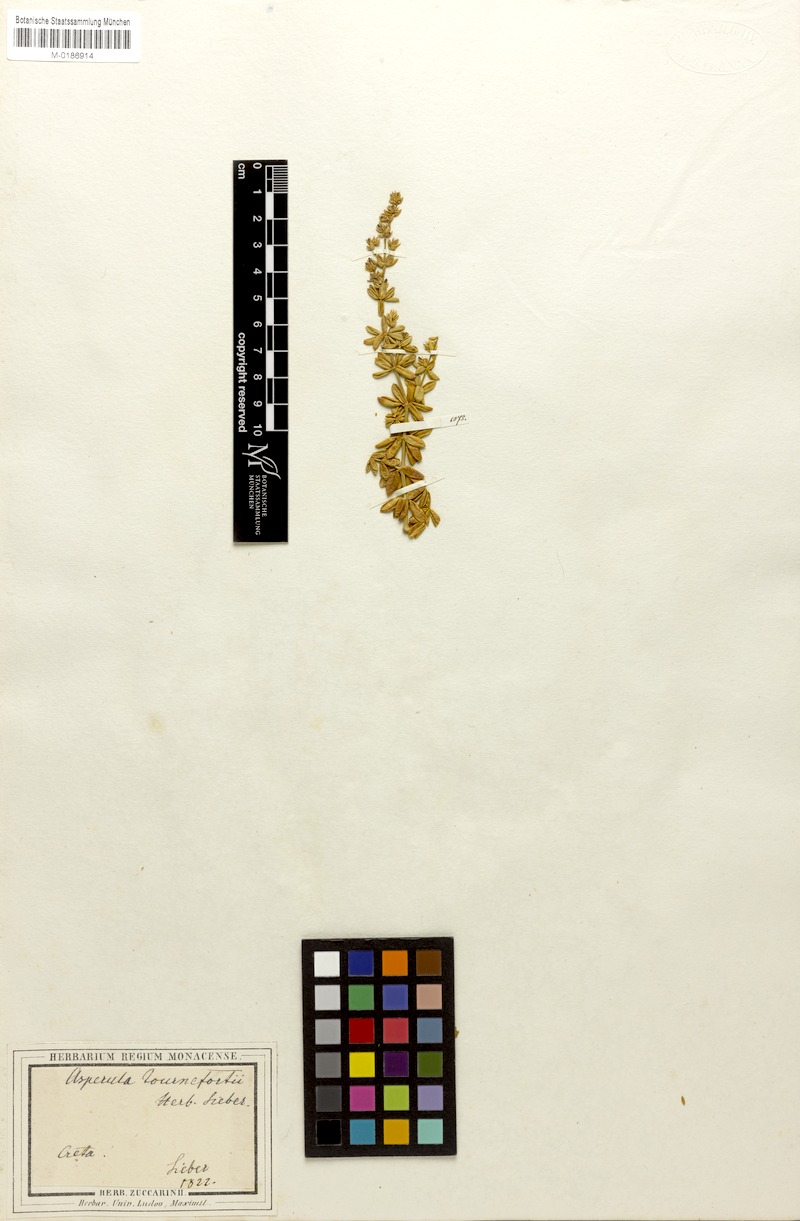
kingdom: Plantae
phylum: Tracheophyta
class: Magnoliopsida
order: Gentianales
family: Rubiaceae
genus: Asperula
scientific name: Asperula tournefortii
